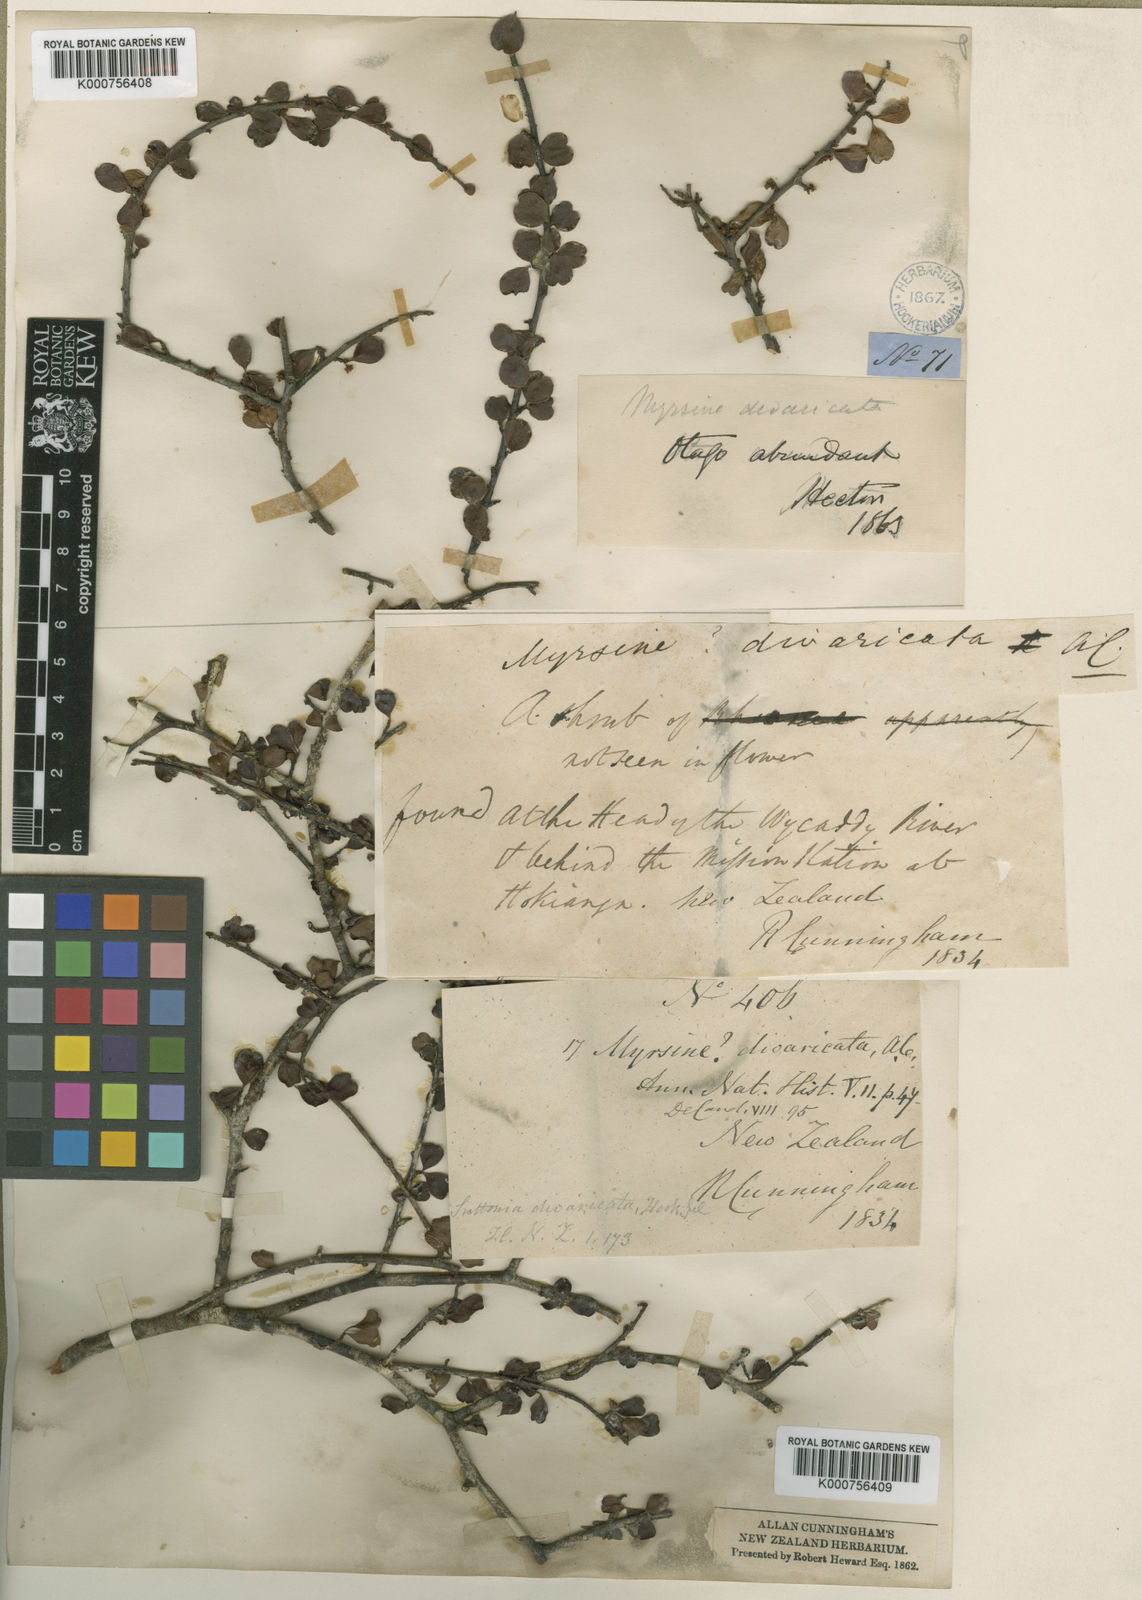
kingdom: Plantae
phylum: Tracheophyta
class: Magnoliopsida
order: Ericales
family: Primulaceae
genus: Myrsine
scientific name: Myrsine divaricata
